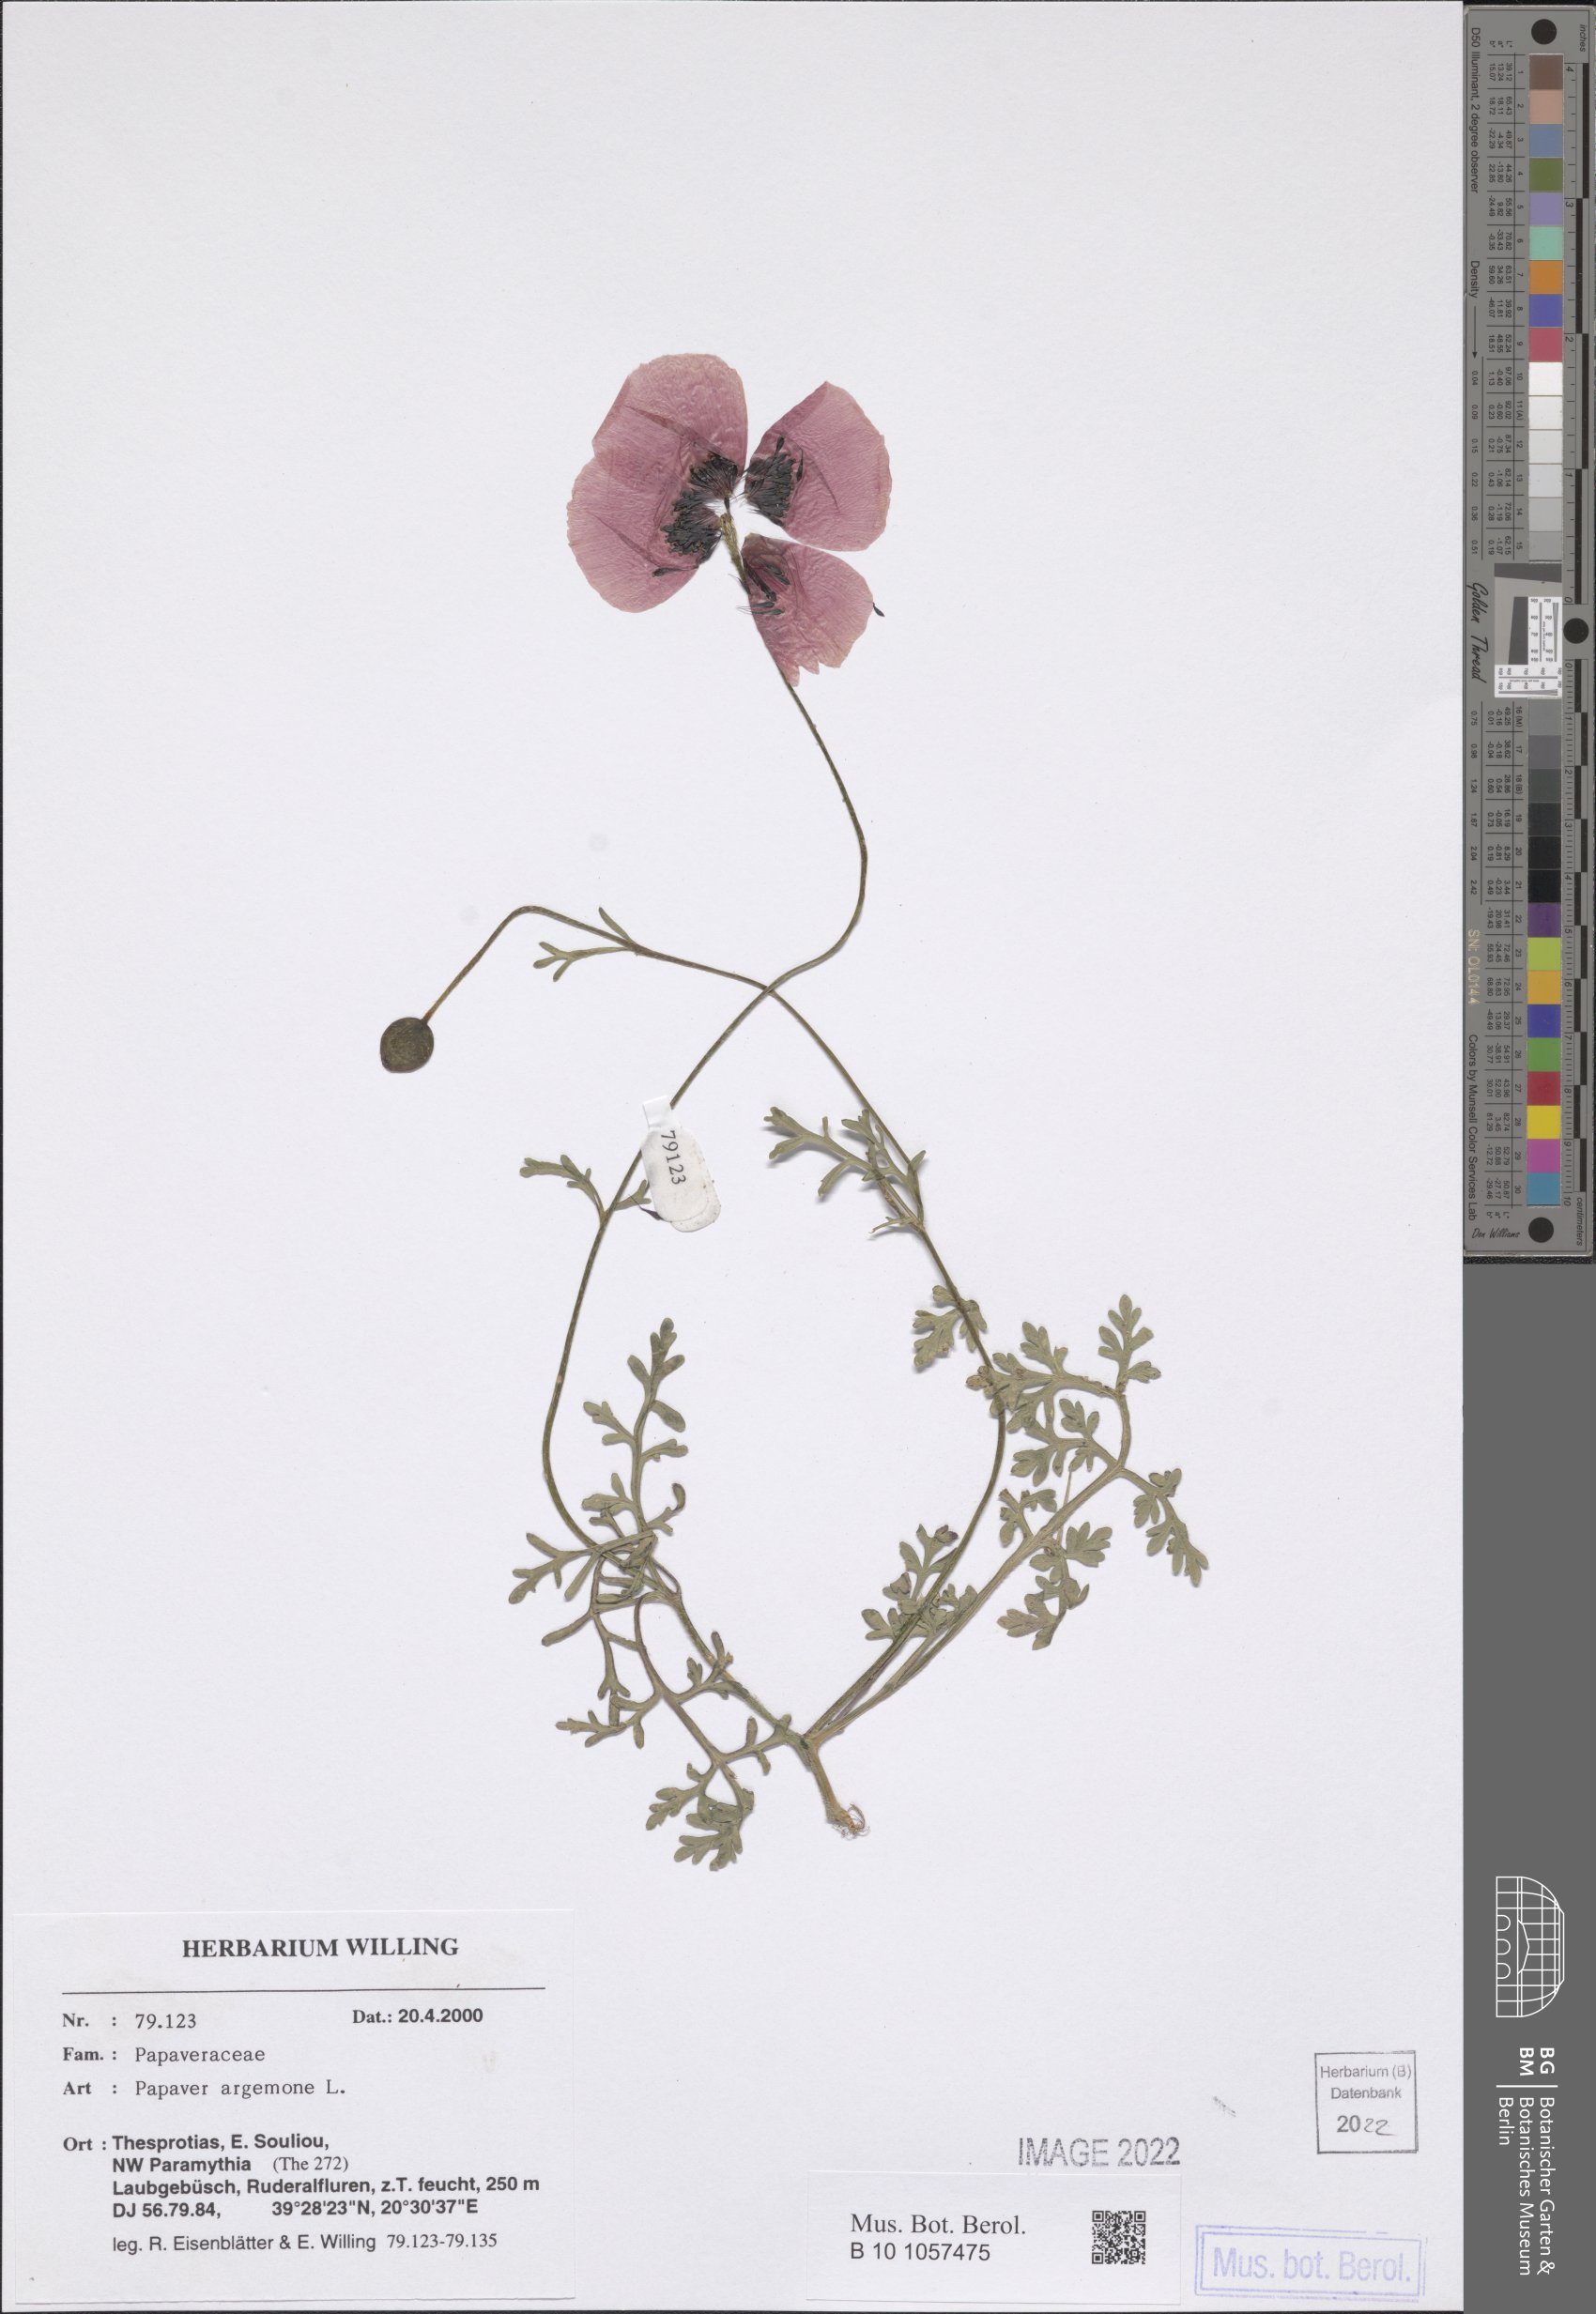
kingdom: Plantae
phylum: Tracheophyta
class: Magnoliopsida
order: Ranunculales
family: Papaveraceae
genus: Roemeria
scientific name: Roemeria argemone
